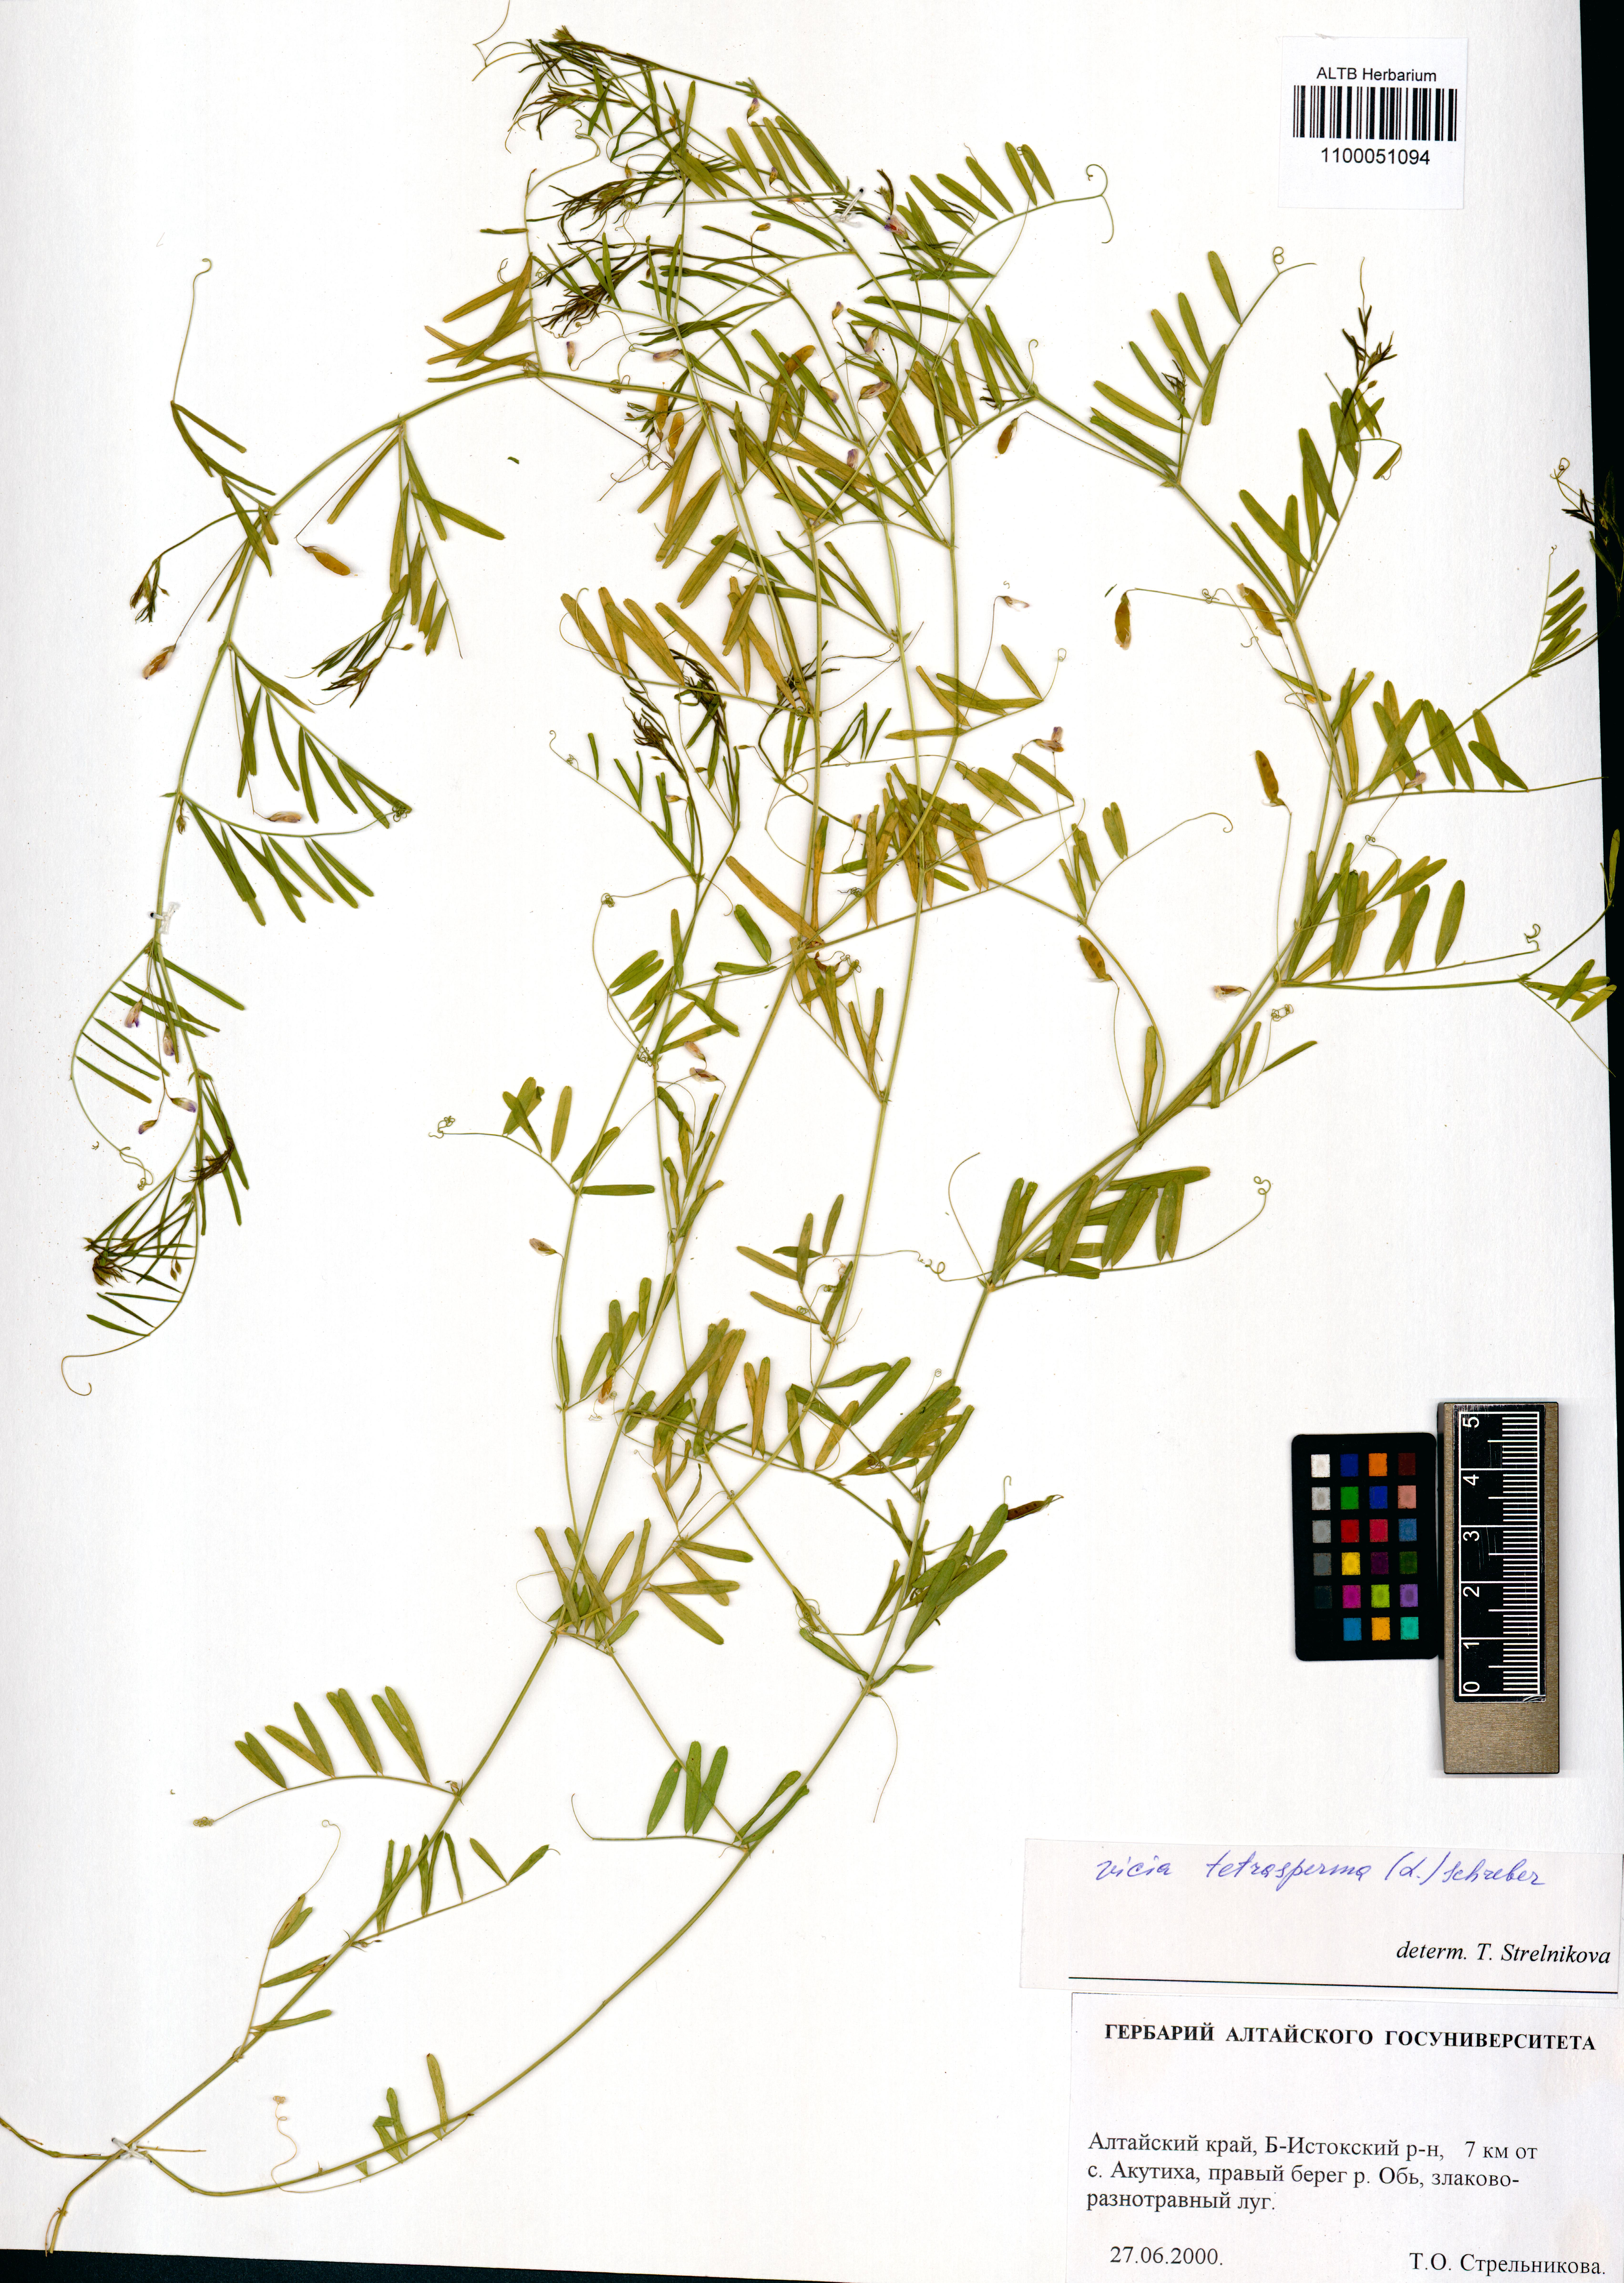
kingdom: Plantae
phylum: Tracheophyta
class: Magnoliopsida
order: Fabales
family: Fabaceae
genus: Vicia
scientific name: Vicia tetrasperma
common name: Smooth tare
